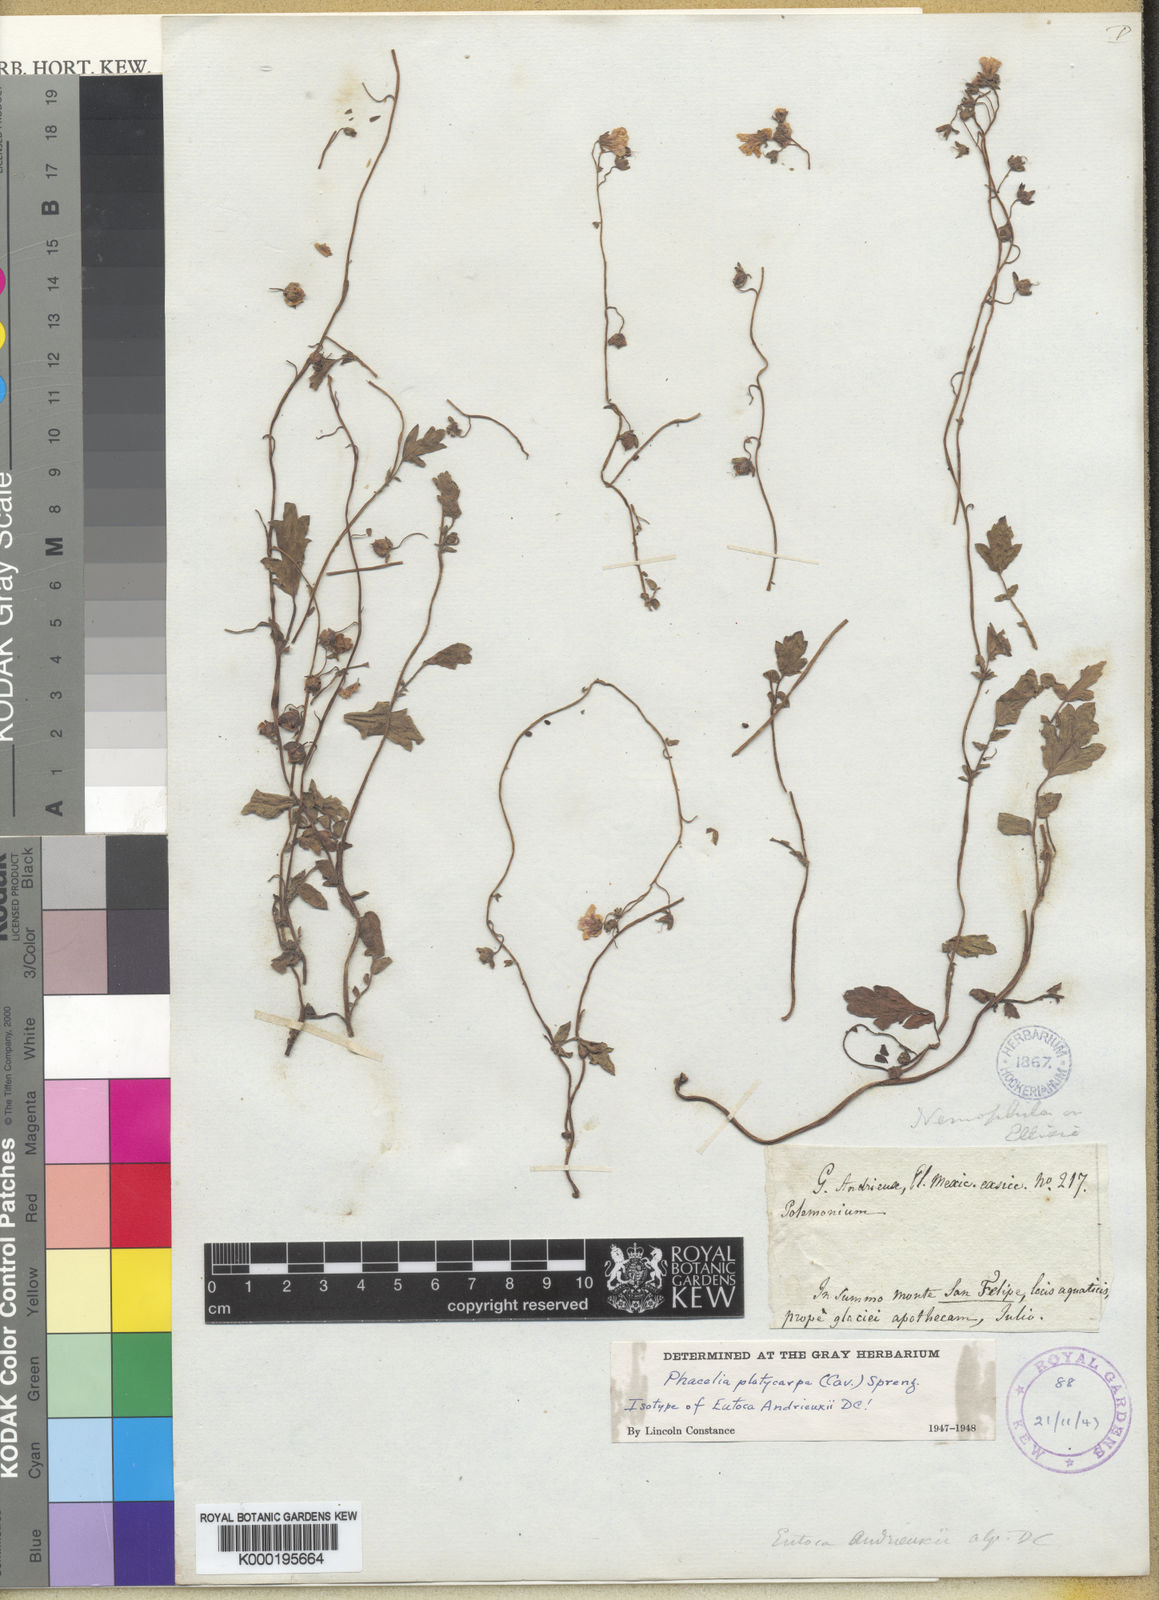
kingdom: Plantae
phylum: Tracheophyta
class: Magnoliopsida
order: Boraginales
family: Hydrophyllaceae
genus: Phacelia
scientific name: Phacelia platycarpa
